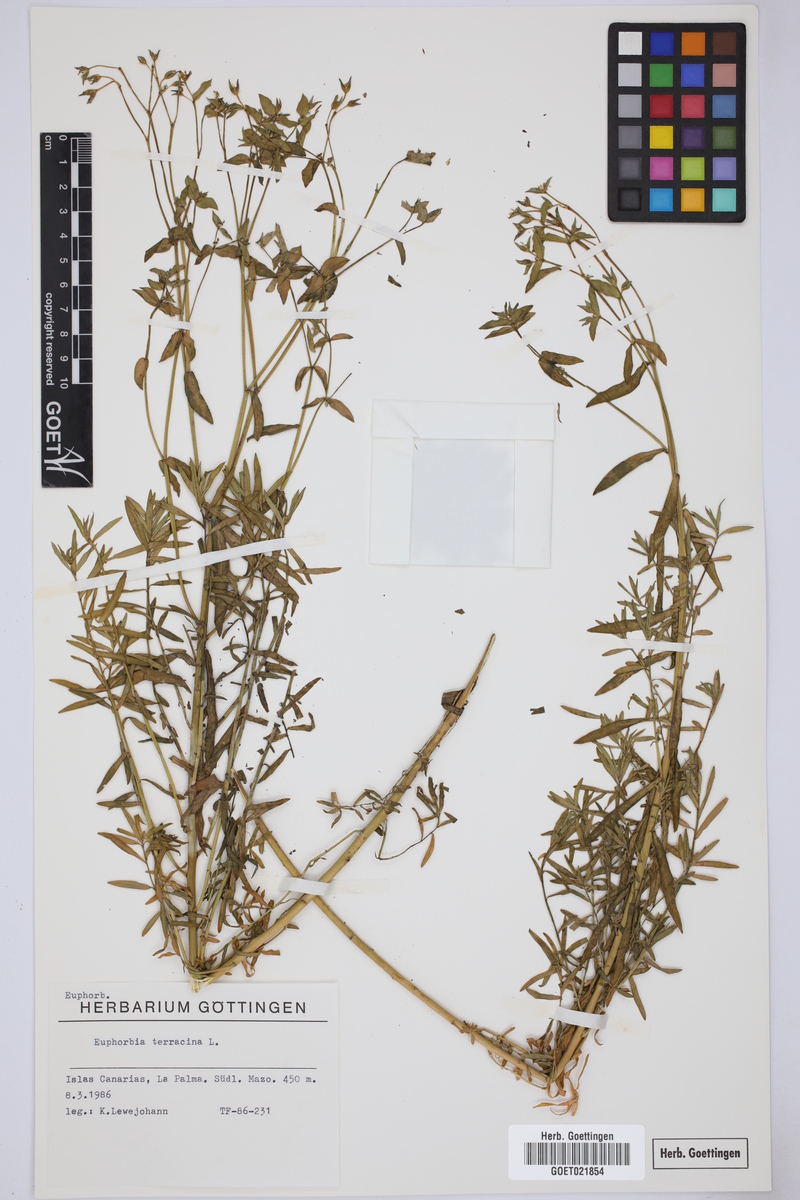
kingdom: Plantae
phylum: Tracheophyta
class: Magnoliopsida
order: Malpighiales
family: Euphorbiaceae
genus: Euphorbia
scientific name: Euphorbia terracina
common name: Geraldton carnation weed
